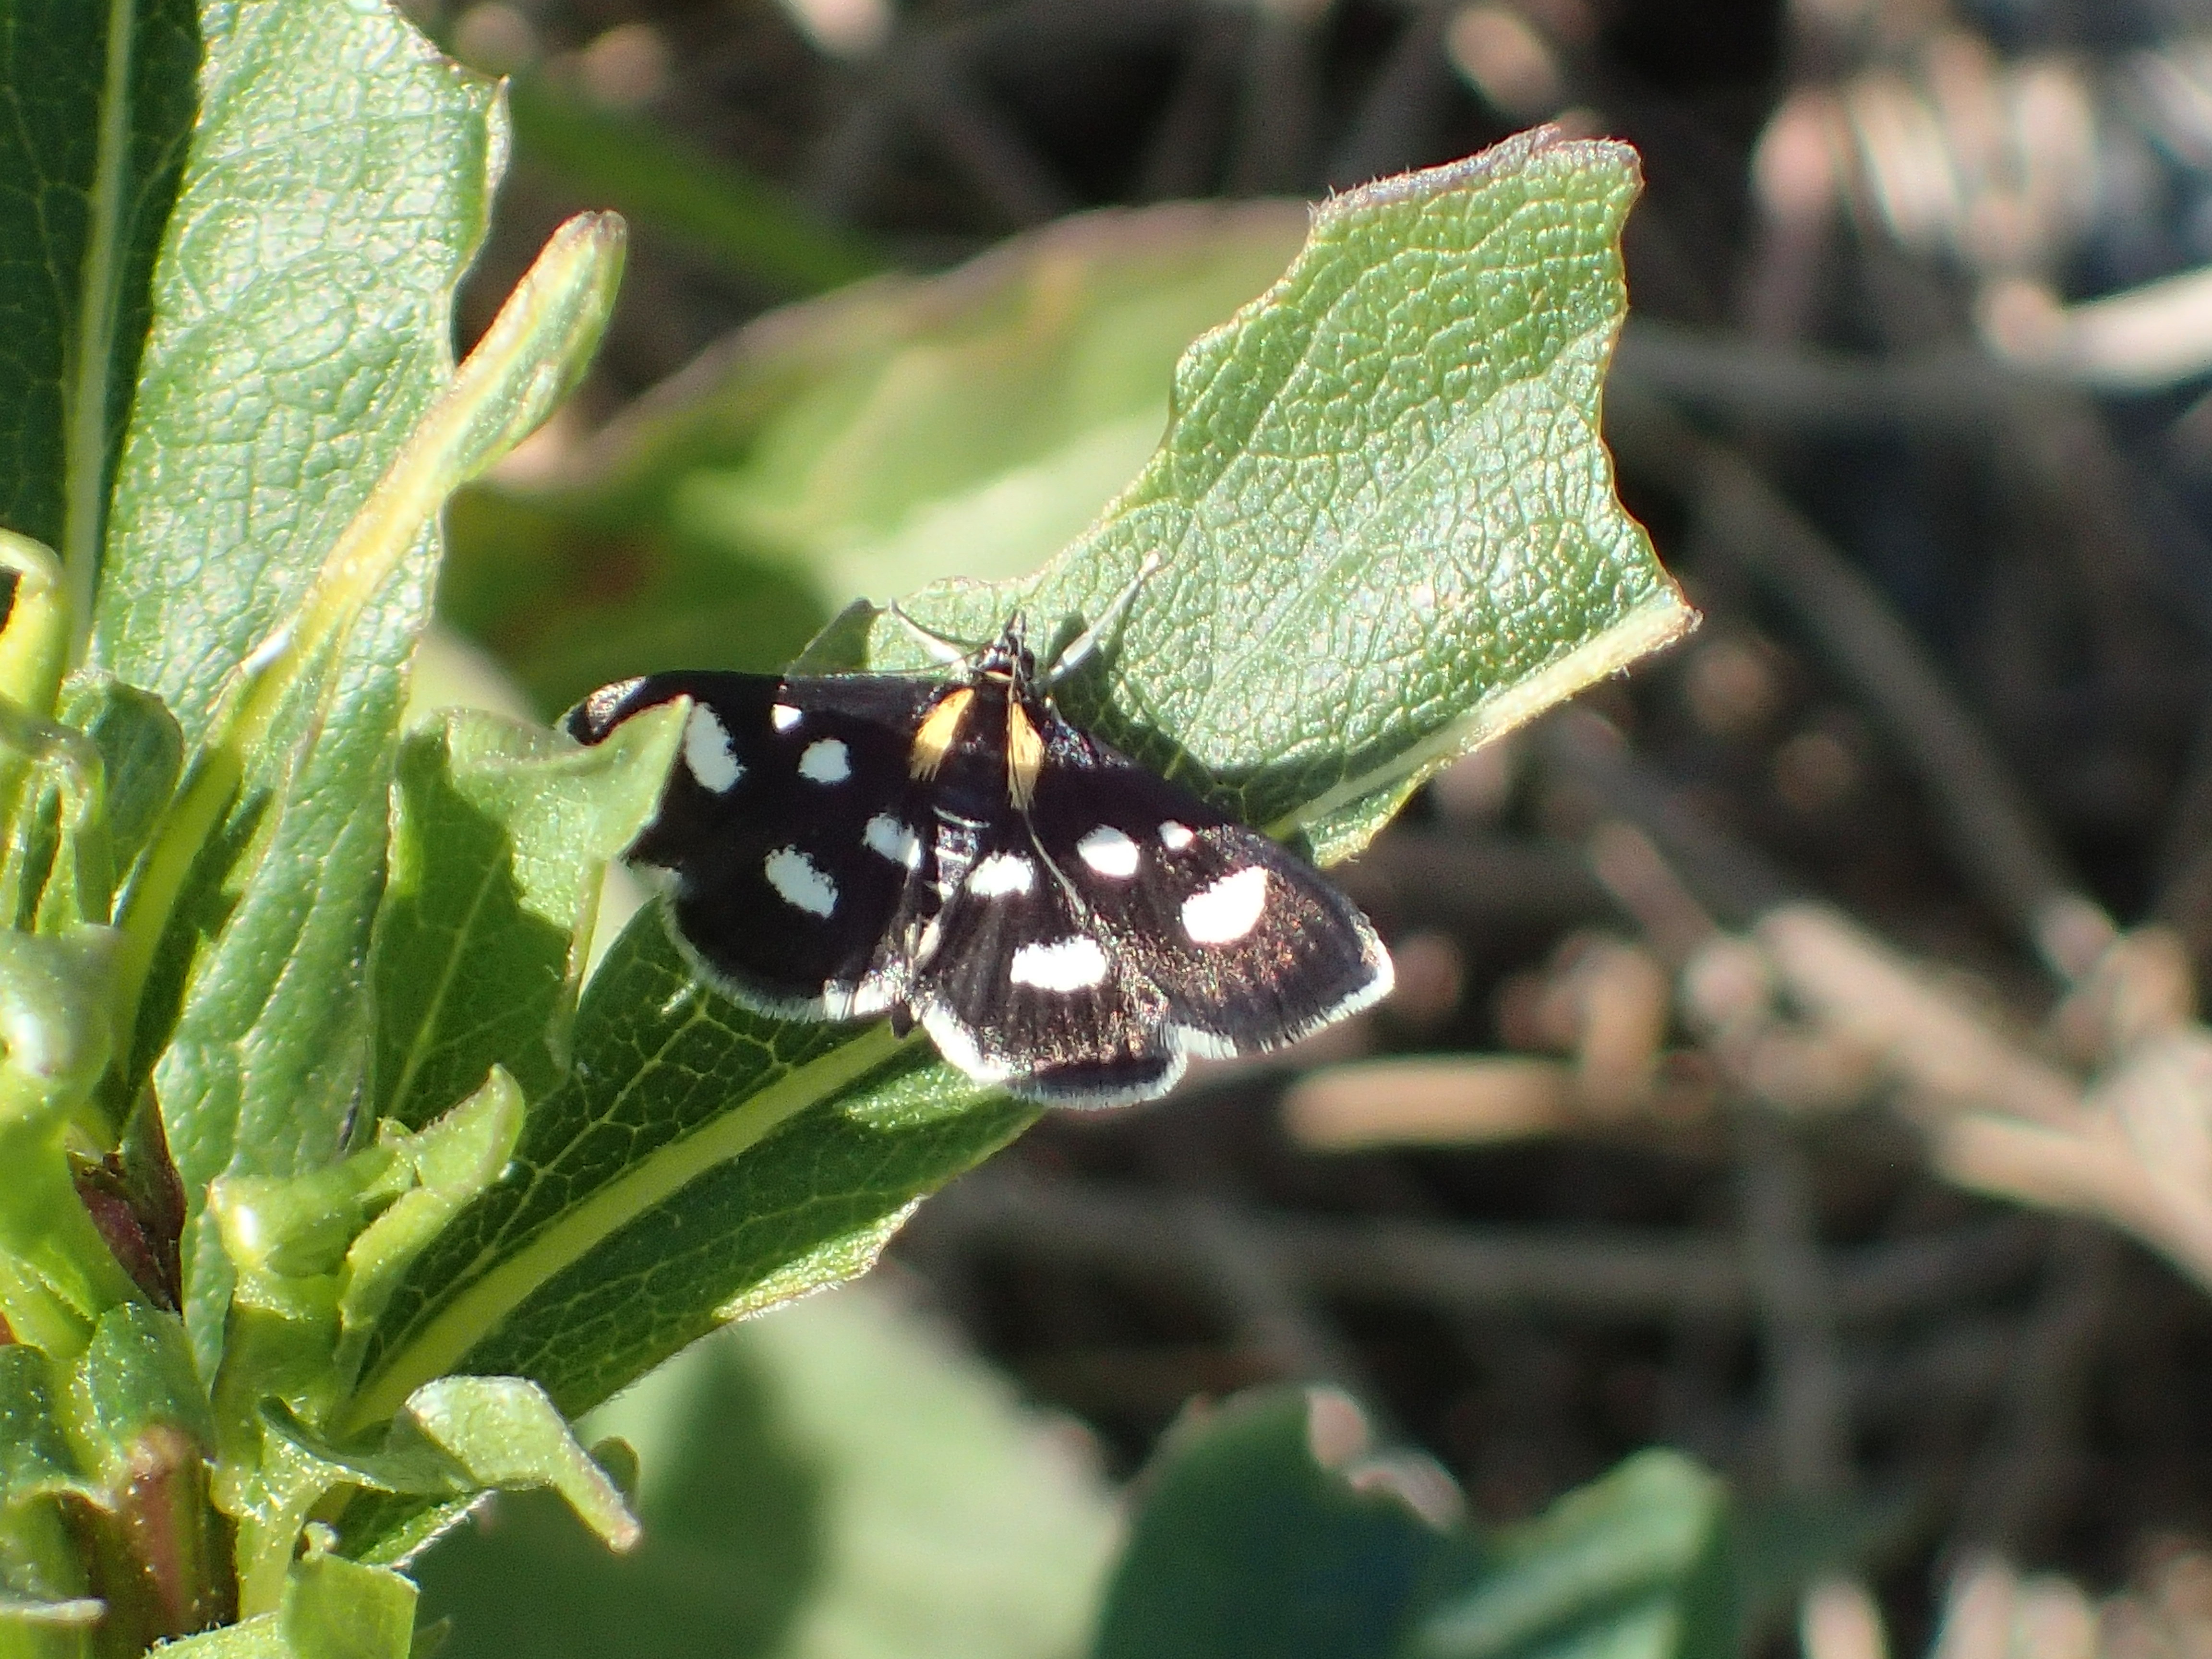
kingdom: Animalia
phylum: Arthropoda
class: Insecta
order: Lepidoptera
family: Crambidae
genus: Anania
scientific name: Anania funebris
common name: White-spotted sable moth
